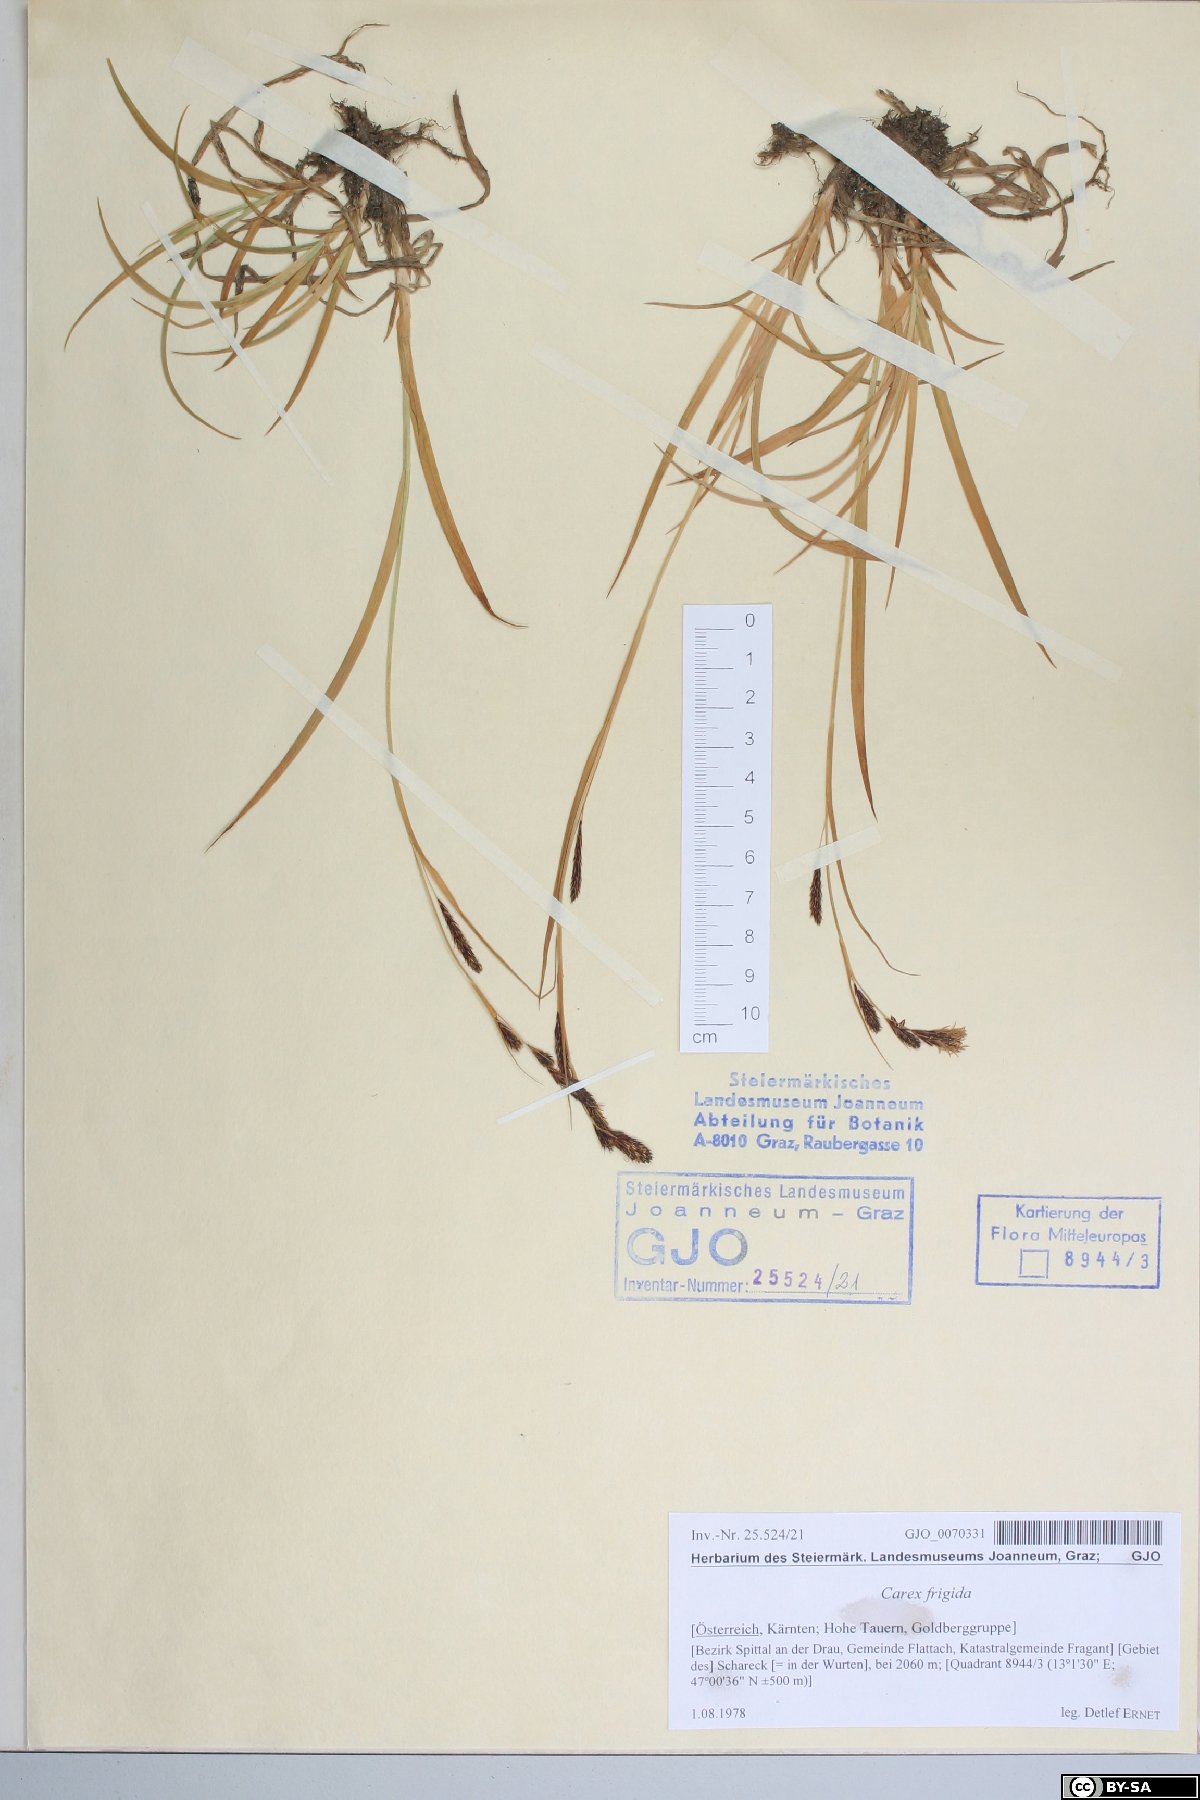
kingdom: Plantae
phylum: Tracheophyta
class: Liliopsida
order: Poales
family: Cyperaceae
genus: Carex
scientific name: Carex frigida
